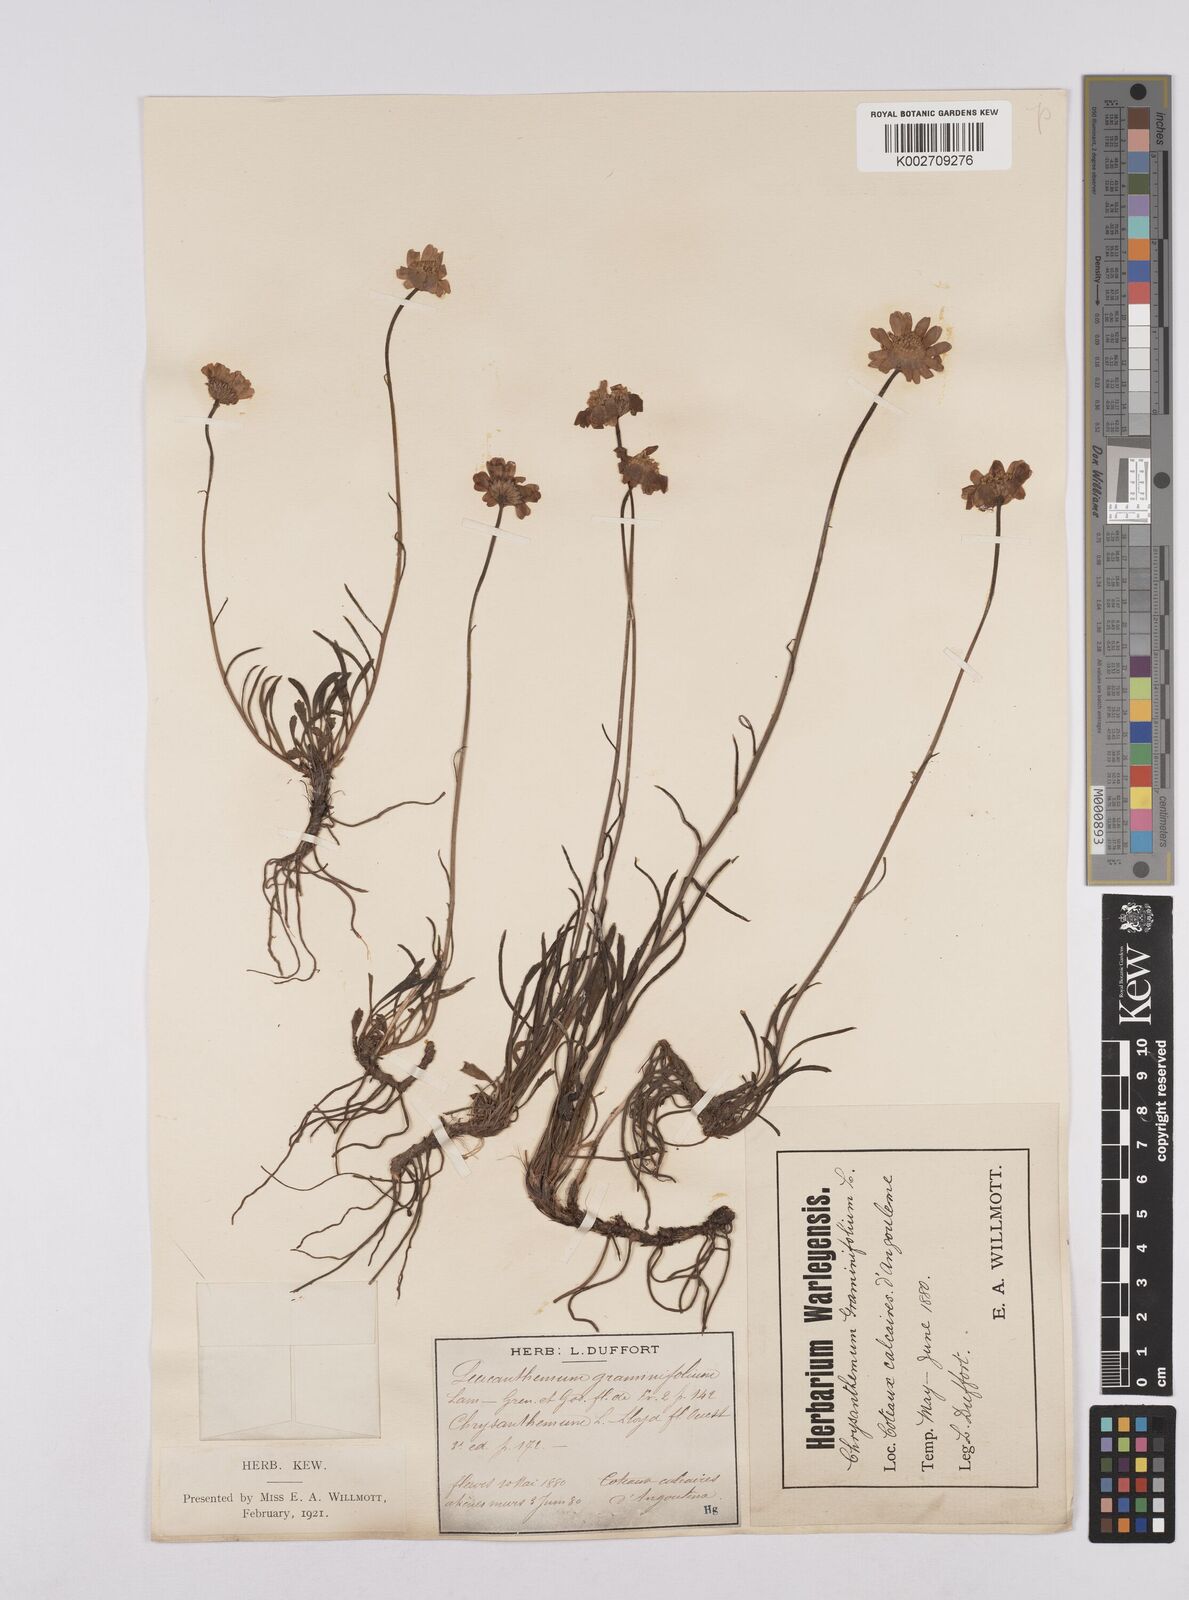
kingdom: Plantae
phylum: Tracheophyta
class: Magnoliopsida
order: Asterales
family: Asteraceae
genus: Leucanthemum
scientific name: Leucanthemum chloroticum
